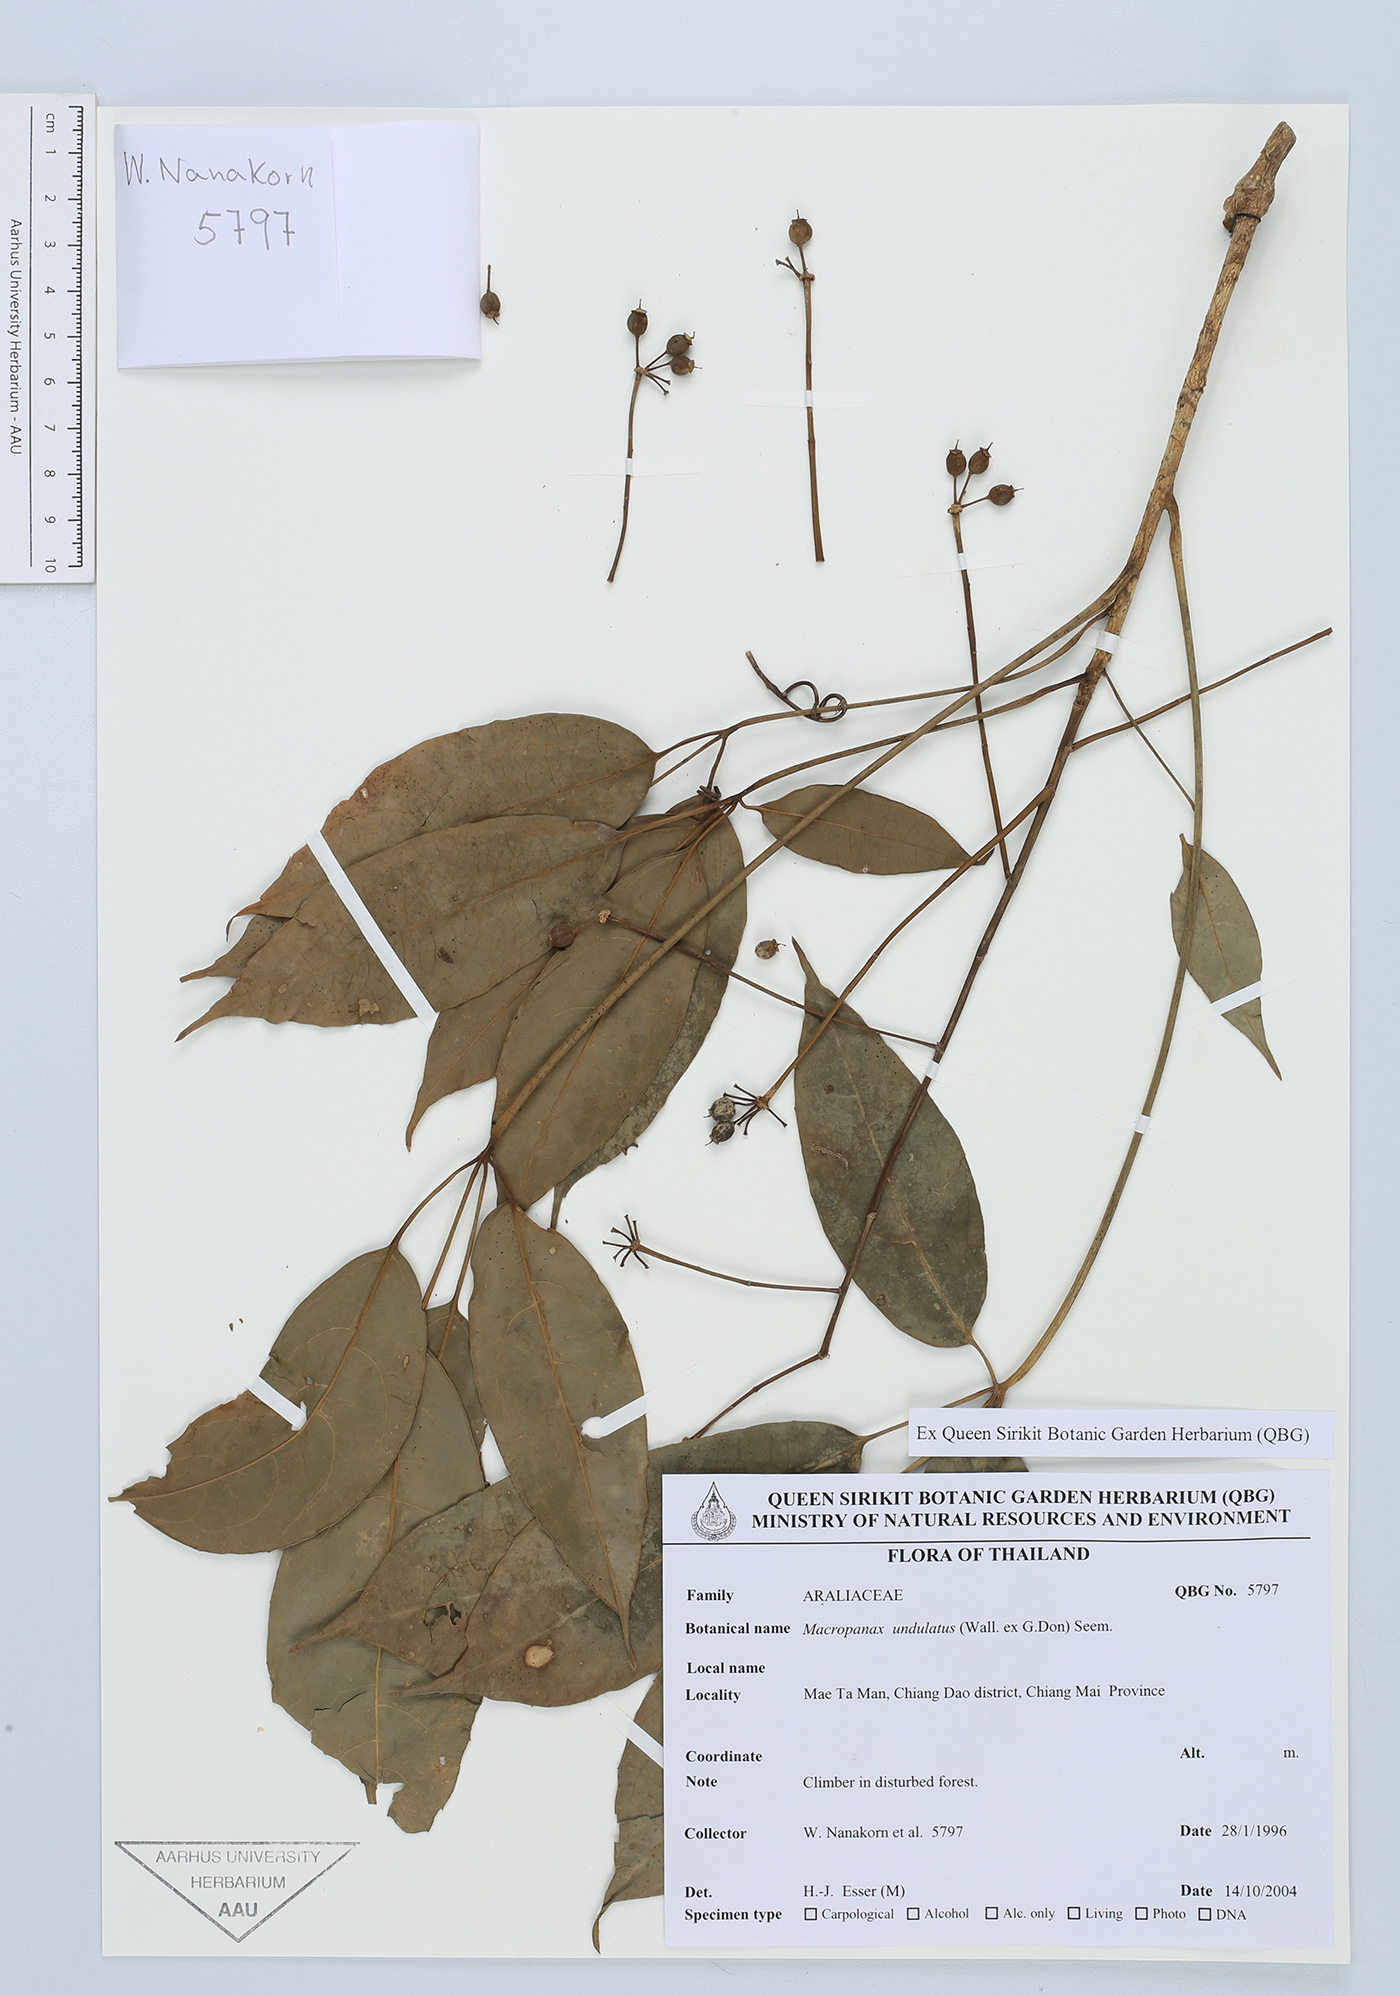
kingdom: Plantae
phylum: Tracheophyta
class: Magnoliopsida
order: Apiales
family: Araliaceae
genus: Macropanax
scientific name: Macropanax undulatus
